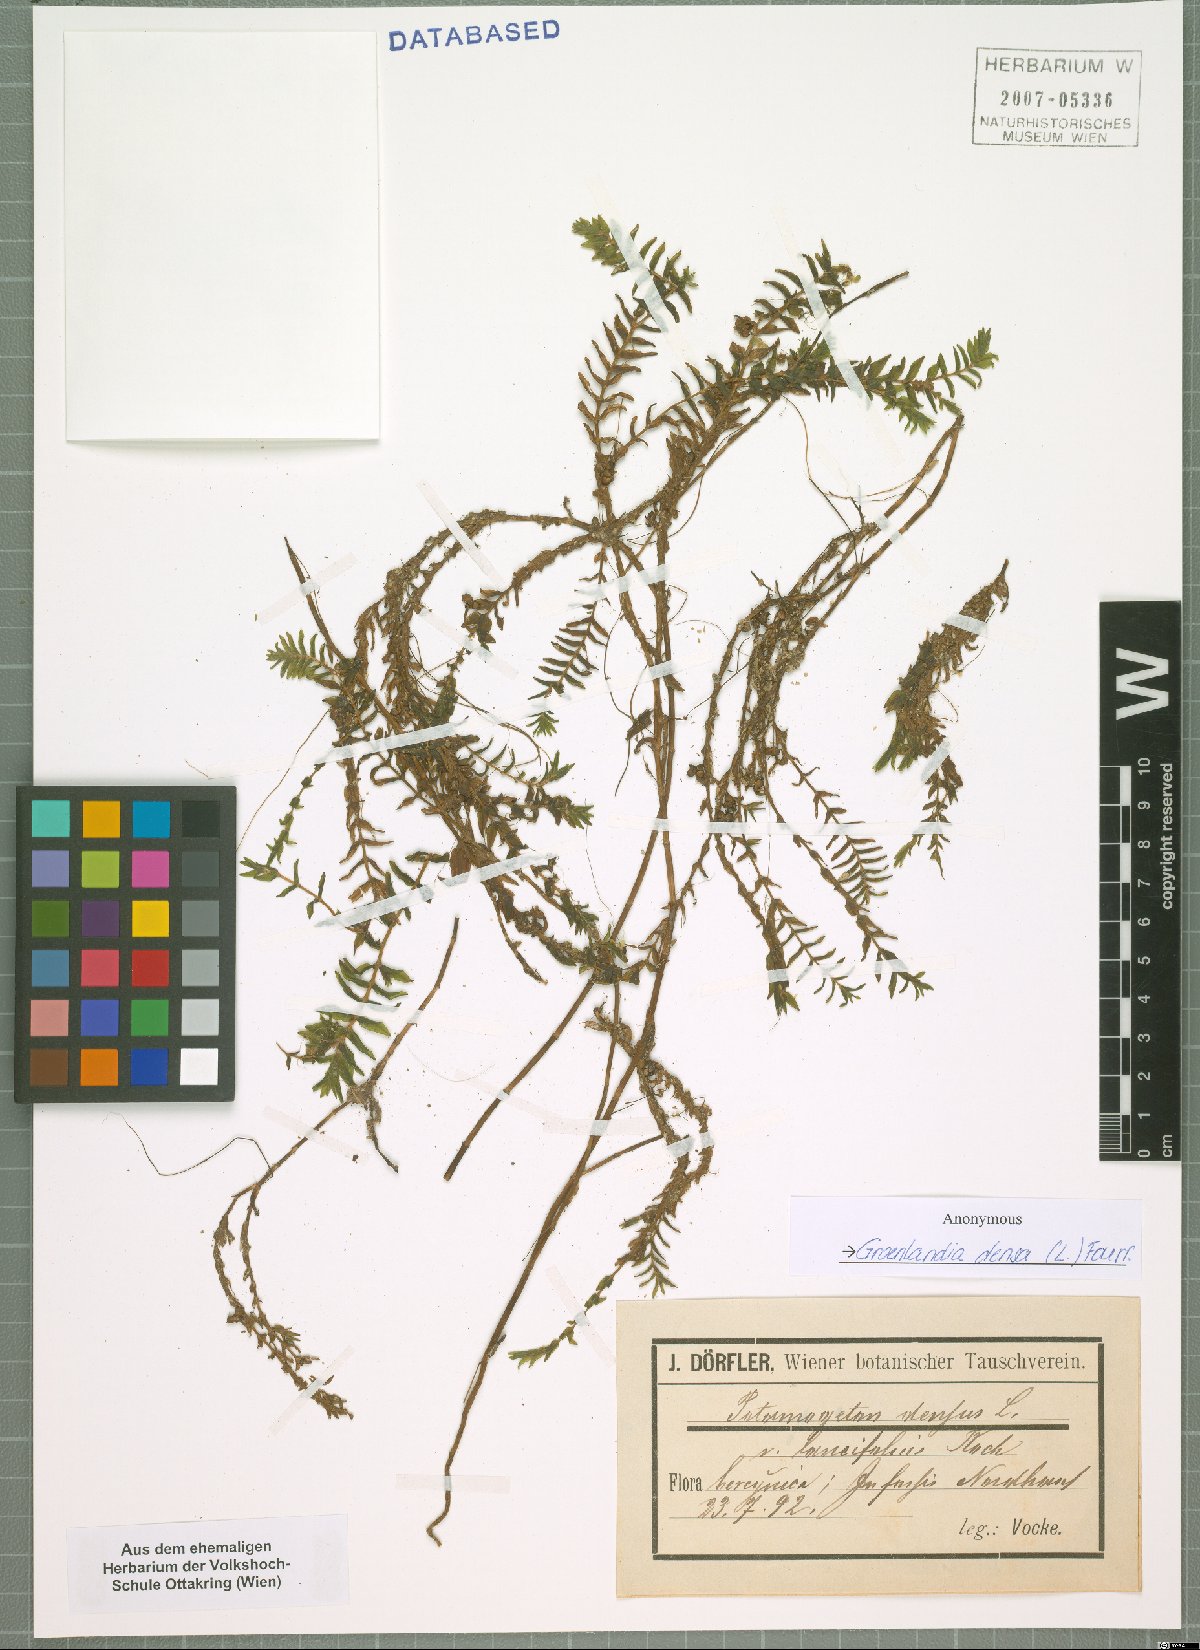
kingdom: Plantae
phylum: Tracheophyta
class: Liliopsida
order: Alismatales
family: Potamogetonaceae
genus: Groenlandia
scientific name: Groenlandia densa
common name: Opposite-leaved pondweed
